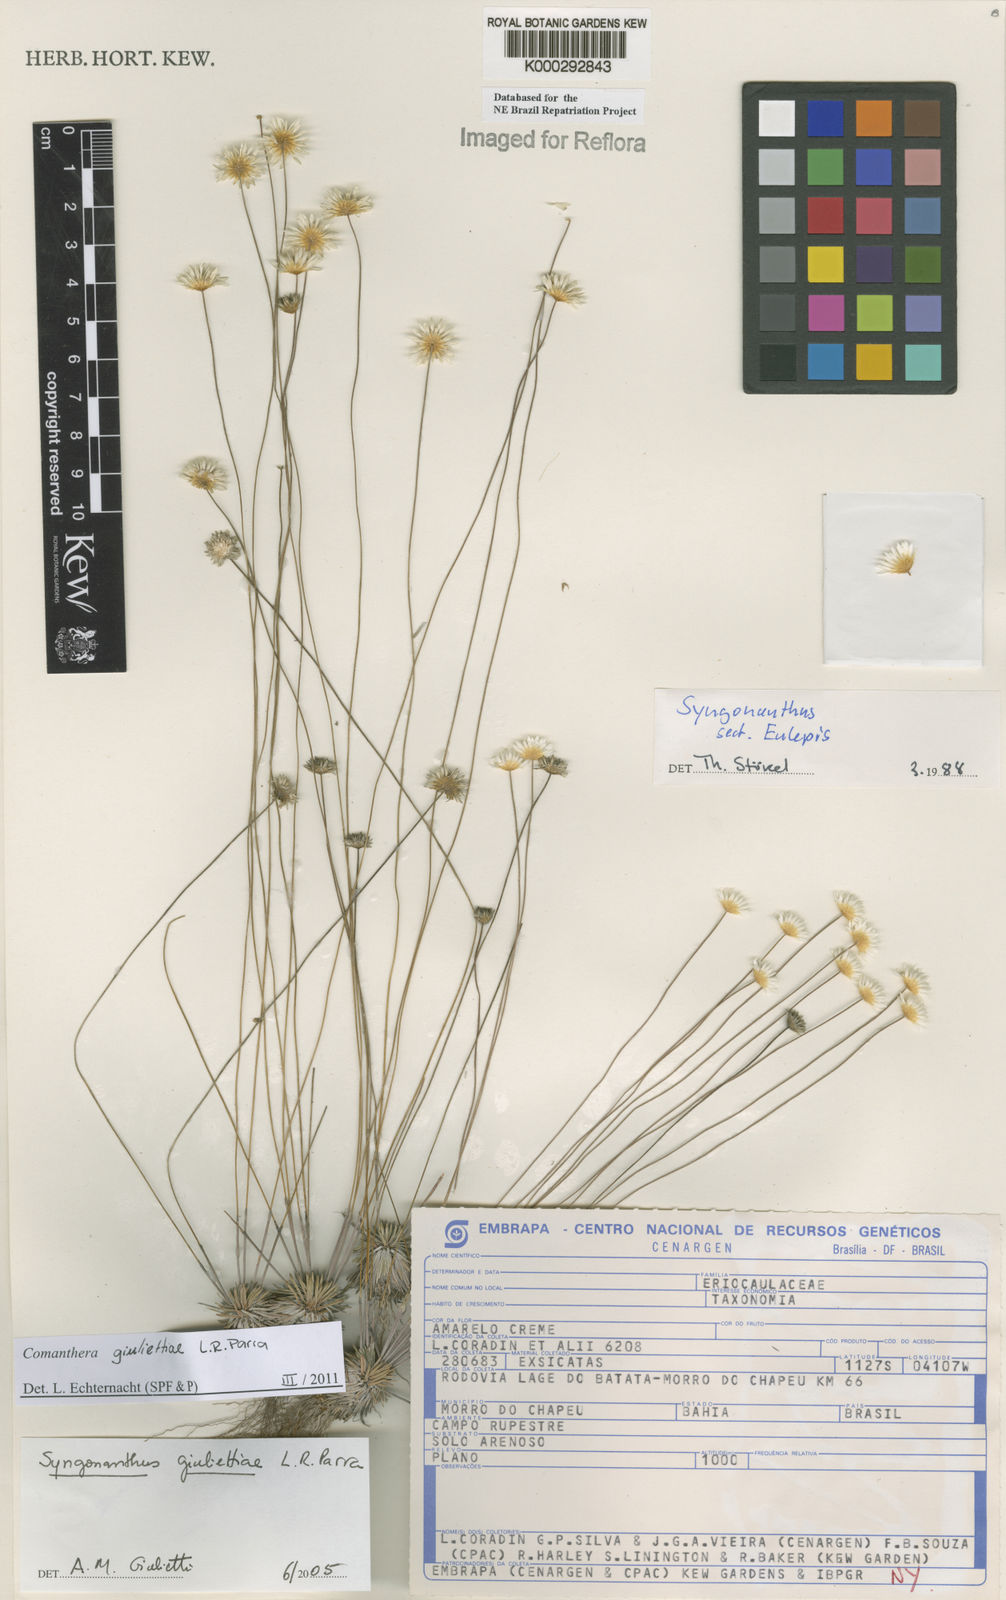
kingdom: Plantae
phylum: Tracheophyta
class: Liliopsida
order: Poales
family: Eriocaulaceae
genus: Syngonanthus
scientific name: Syngonanthus
